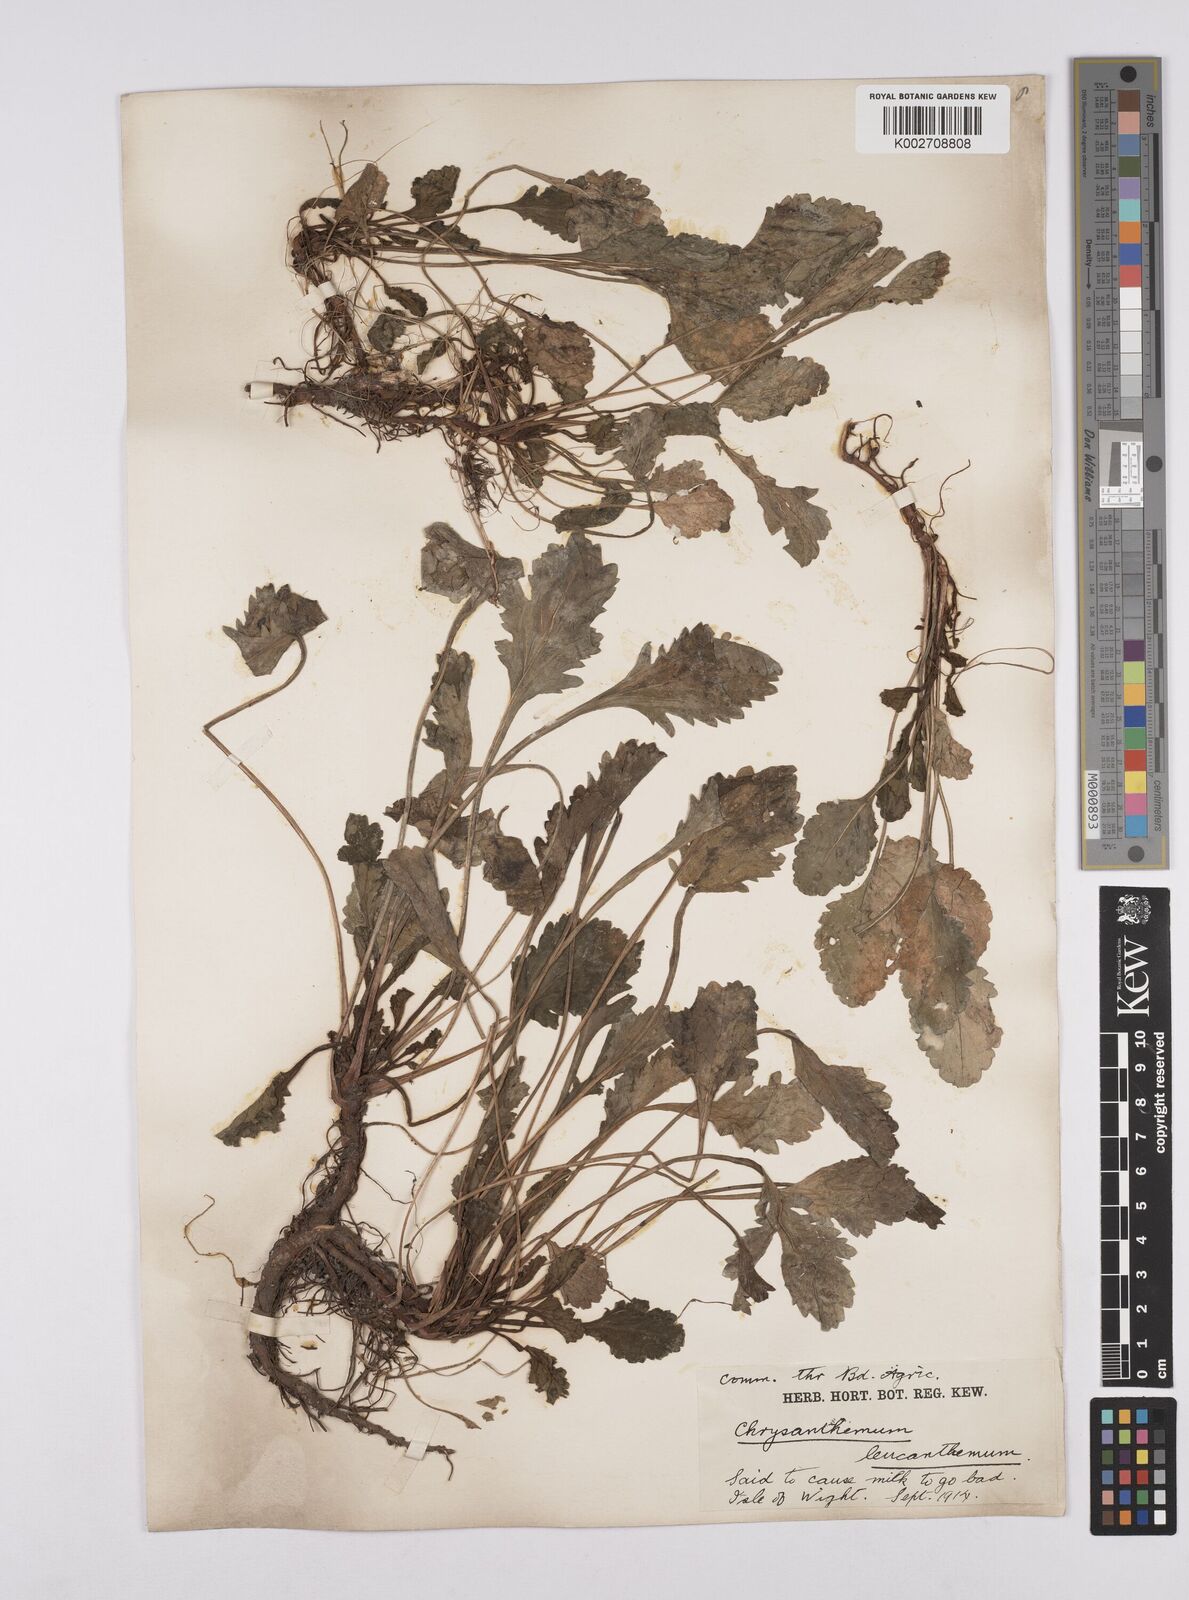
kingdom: Plantae
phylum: Tracheophyta
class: Magnoliopsida
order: Asterales
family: Asteraceae
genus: Leucanthemum
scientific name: Leucanthemum vulgare
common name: Oxeye daisy
